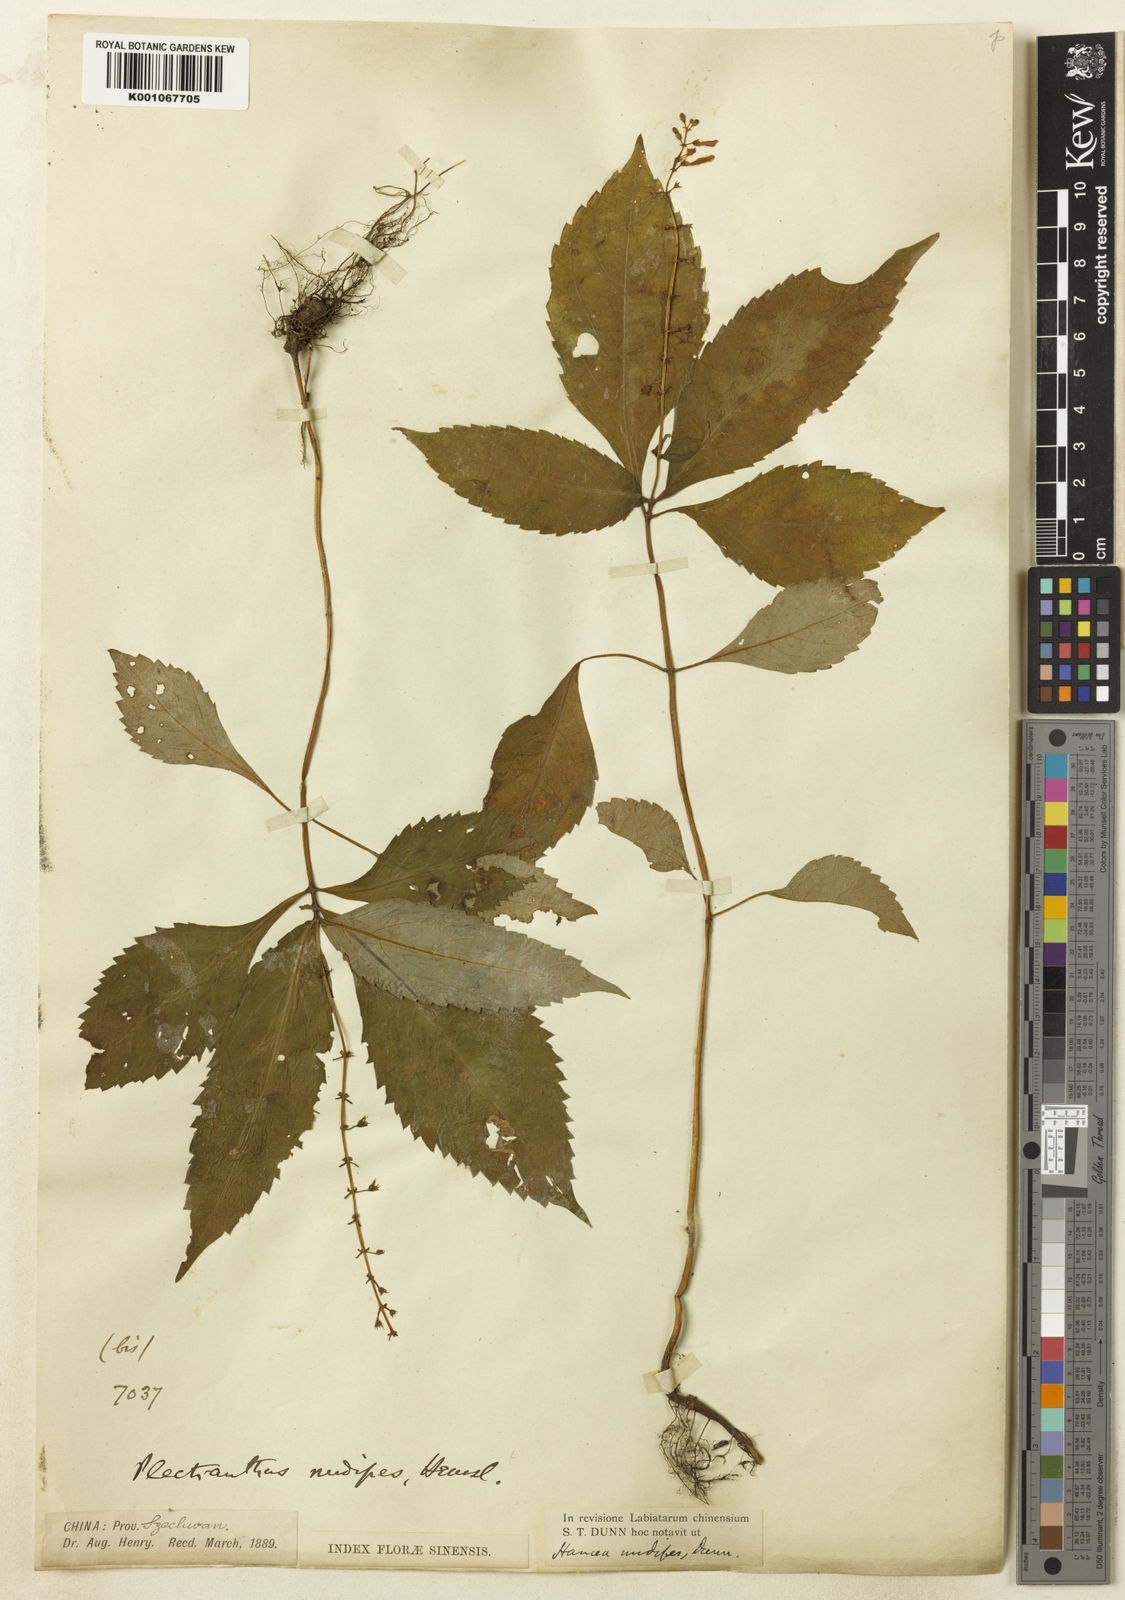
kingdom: Plantae
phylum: Tracheophyta
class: Magnoliopsida
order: Lamiales
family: Lamiaceae
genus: Siphocranion
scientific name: Siphocranion
